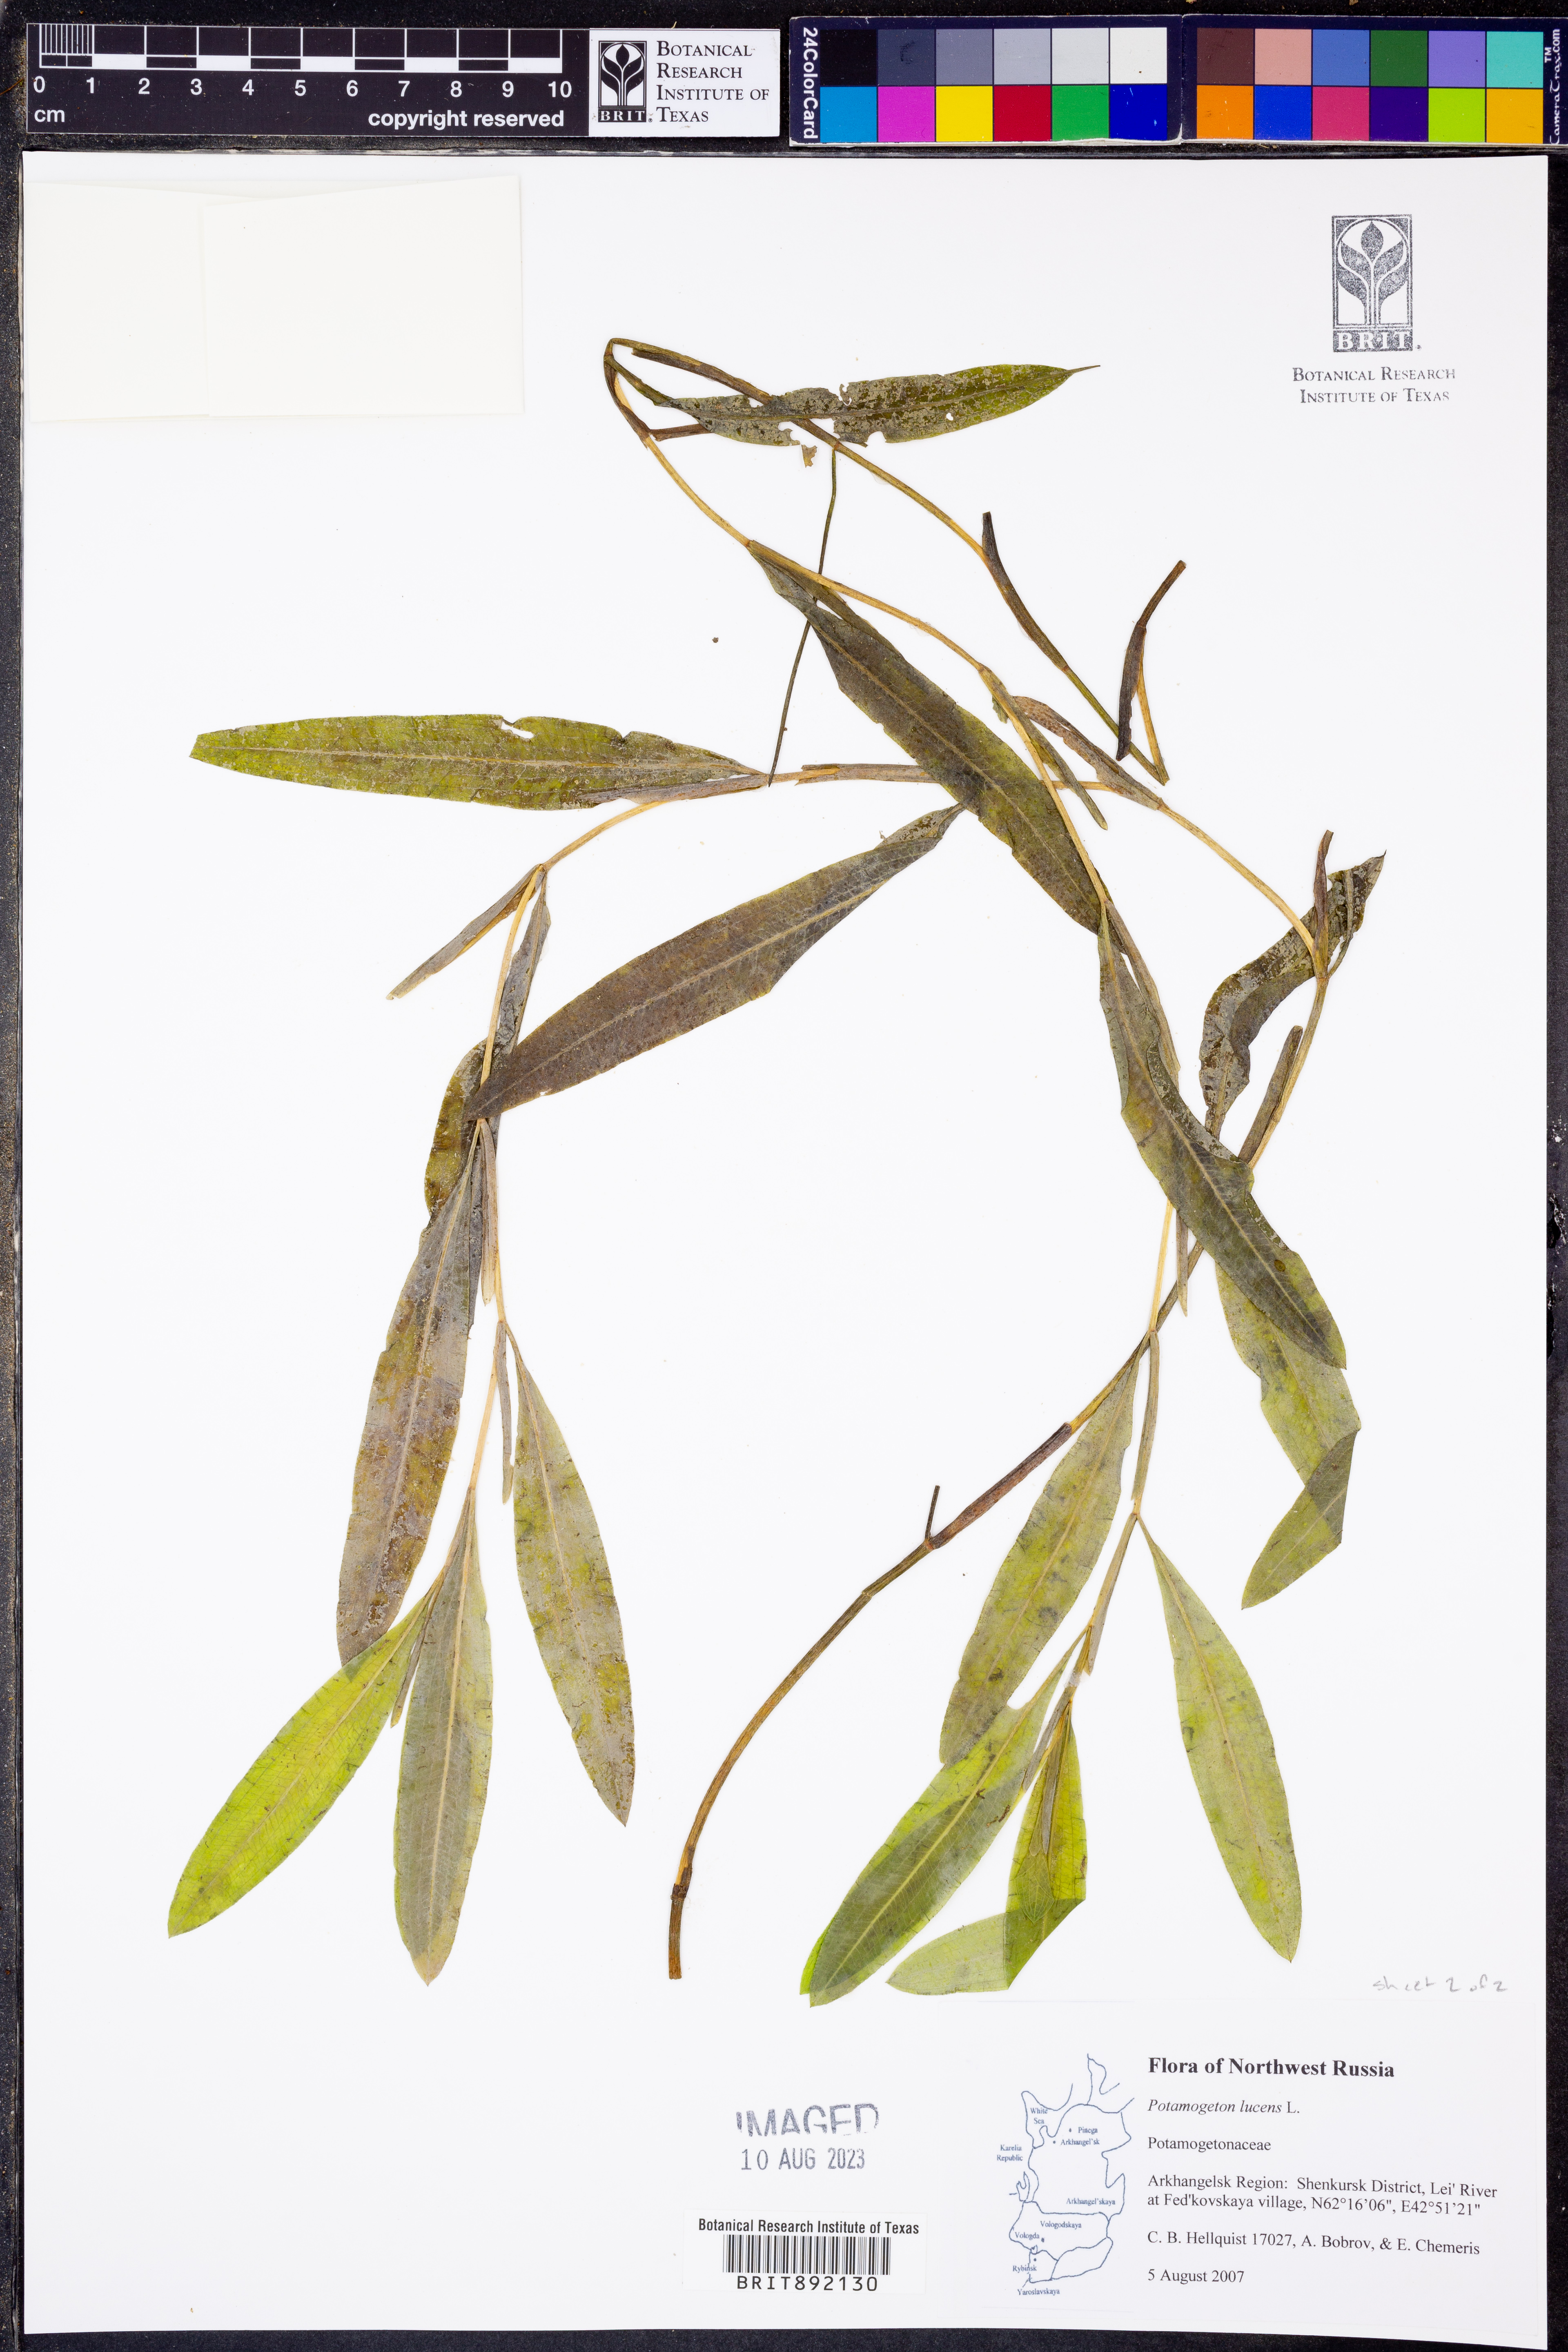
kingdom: Plantae
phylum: Tracheophyta
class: Liliopsida
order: Alismatales
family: Potamogetonaceae
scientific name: Potamogetonaceae
